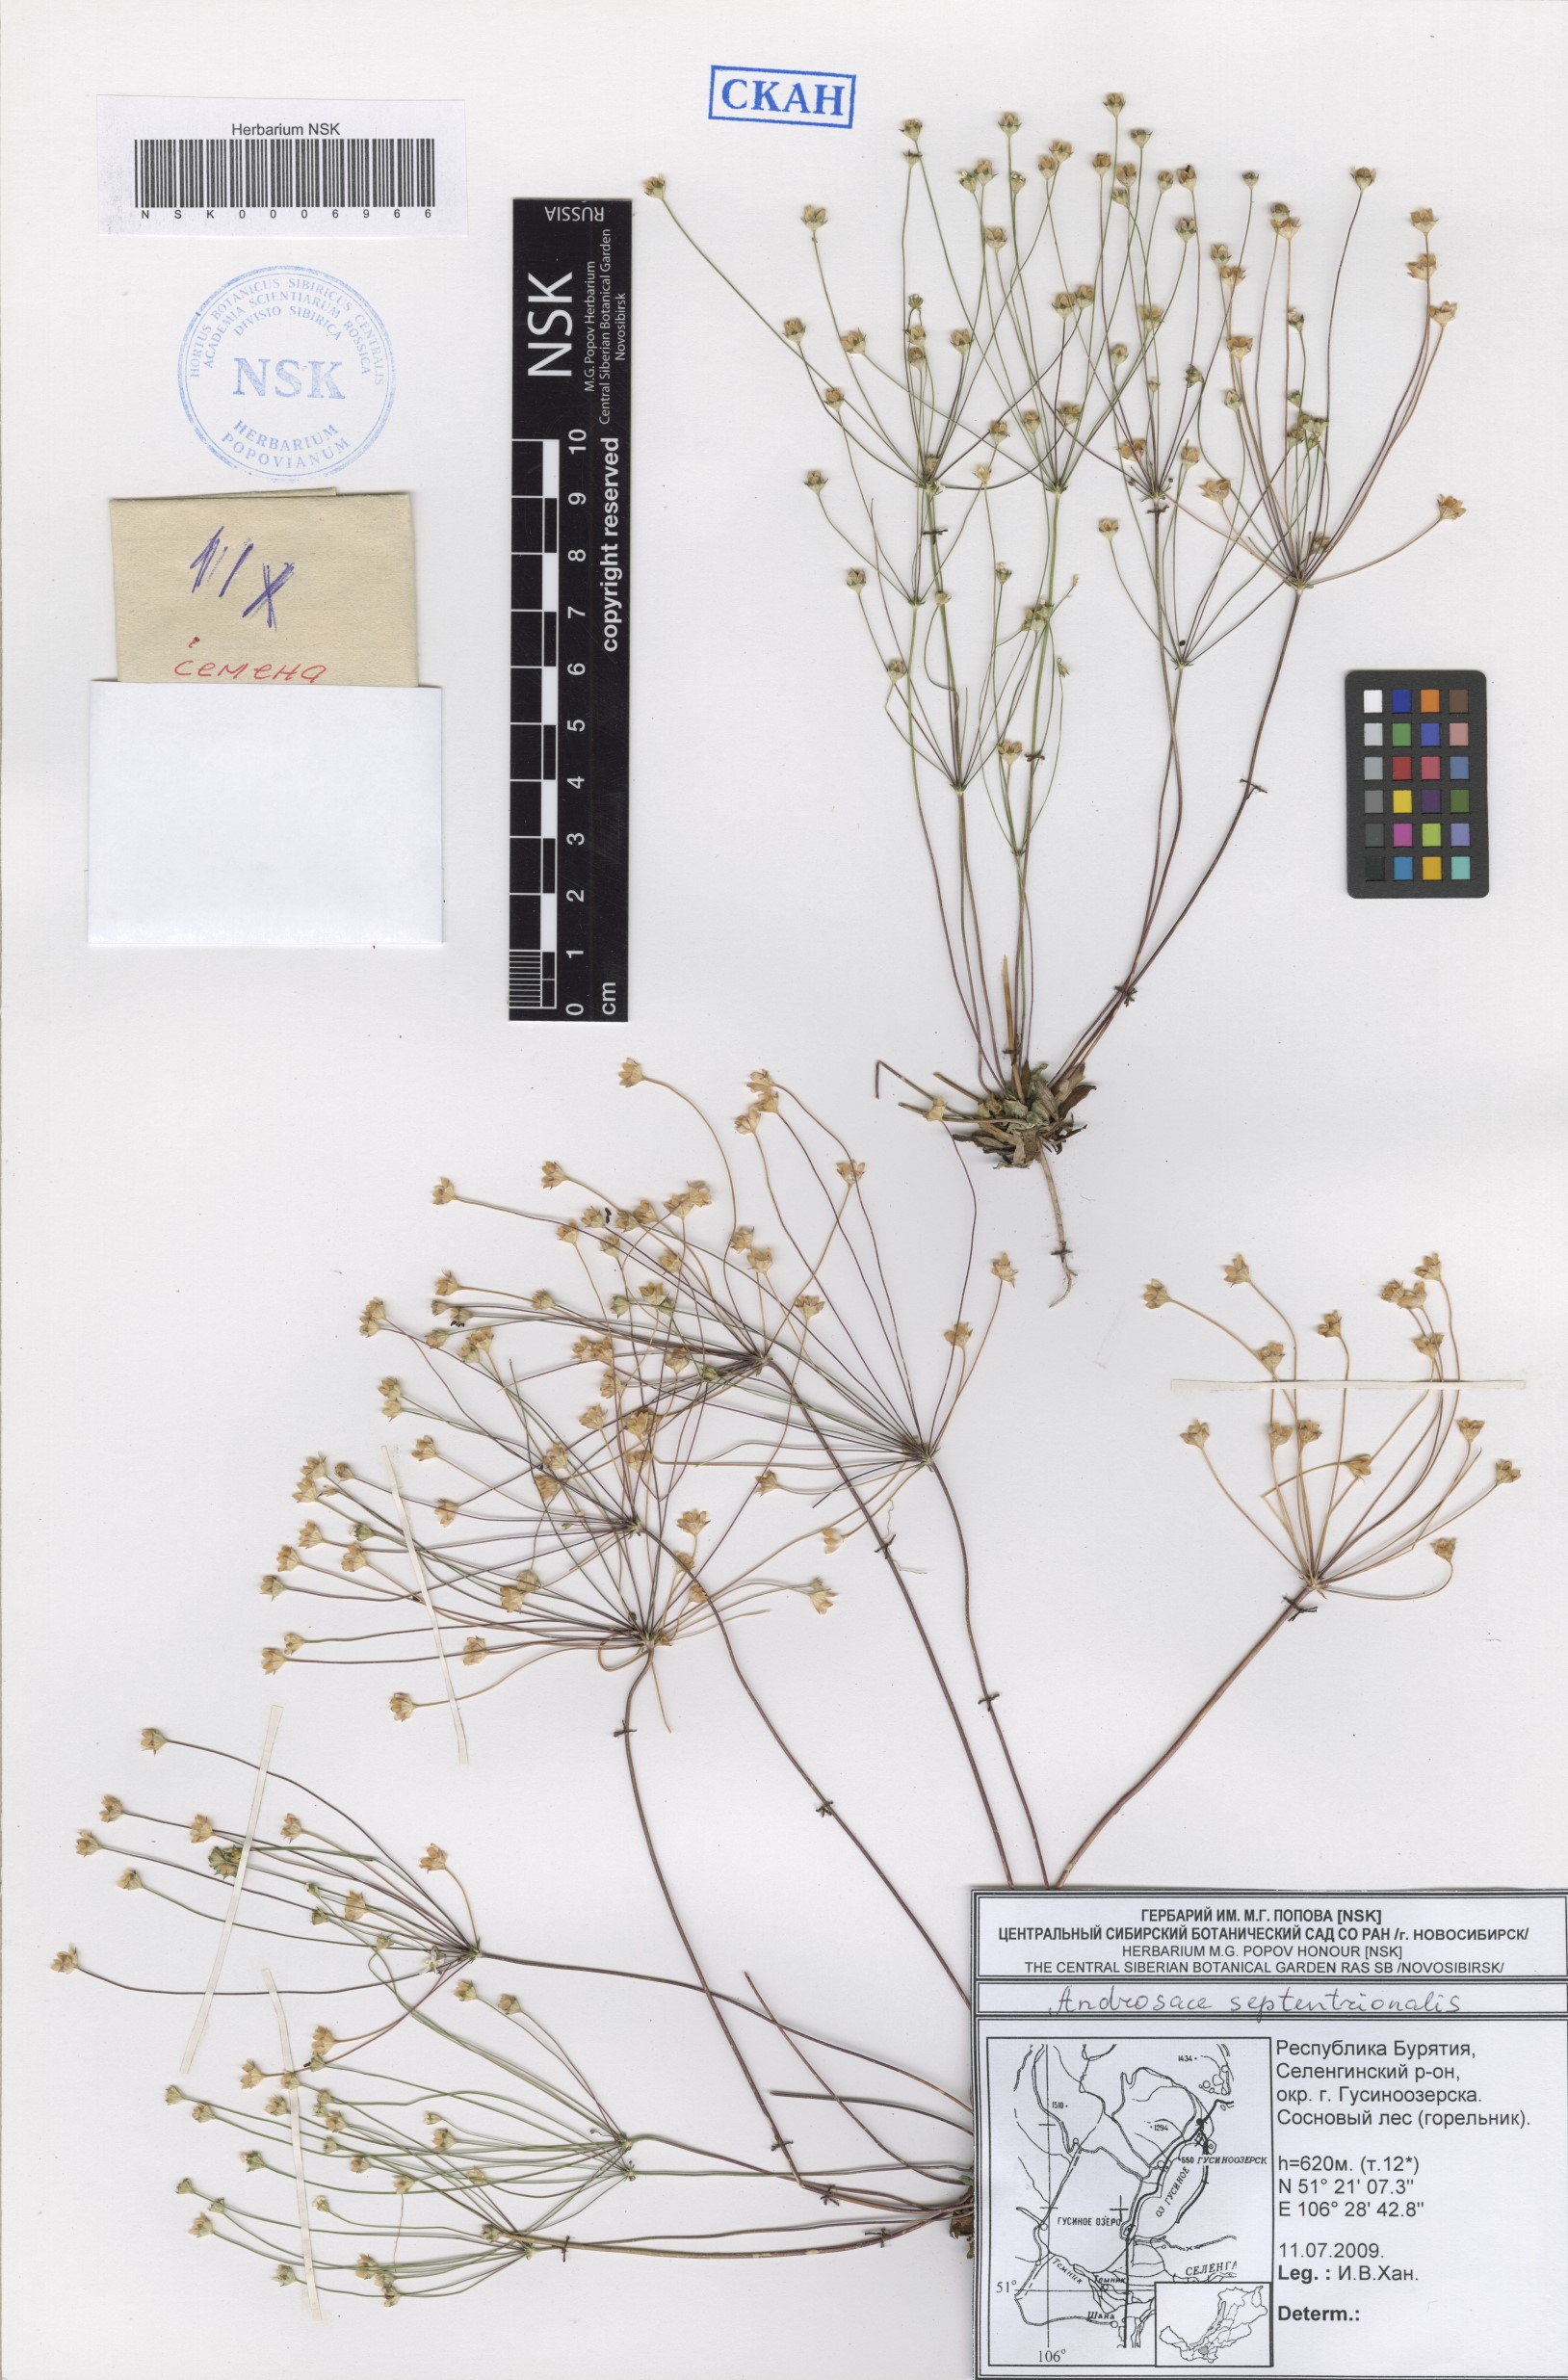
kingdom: Plantae
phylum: Tracheophyta
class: Magnoliopsida
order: Ericales
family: Primulaceae
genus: Androsace
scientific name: Androsace septentrionalis
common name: Hairy northern fairy-candelabra
